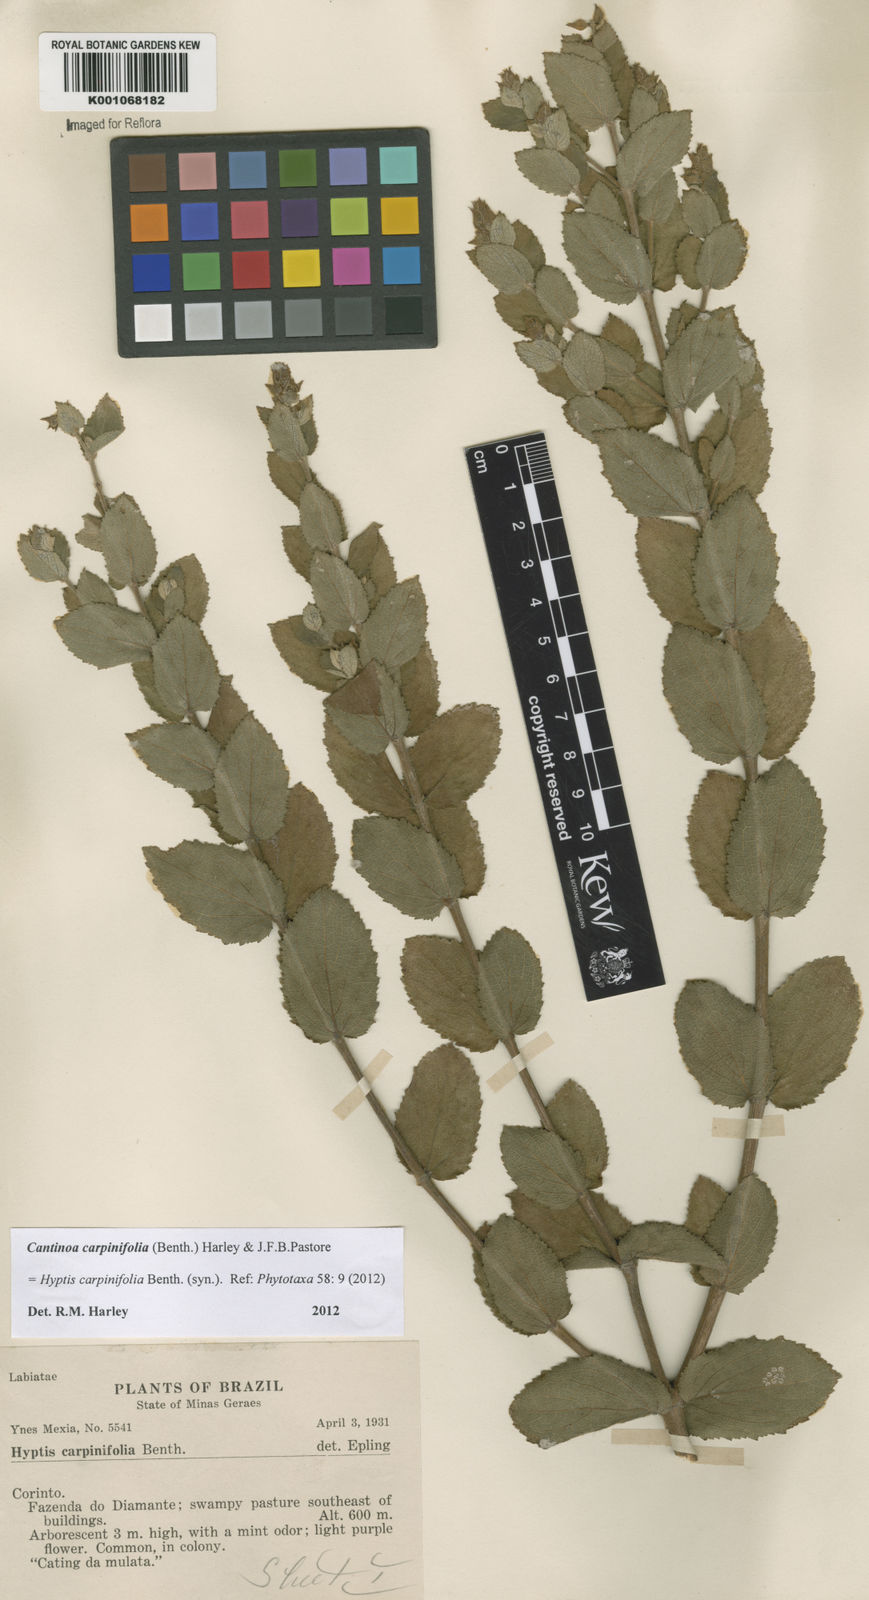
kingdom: Plantae
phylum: Tracheophyta
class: Magnoliopsida
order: Lamiales
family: Lamiaceae
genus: Cantinoa
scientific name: Cantinoa carpinifolia
